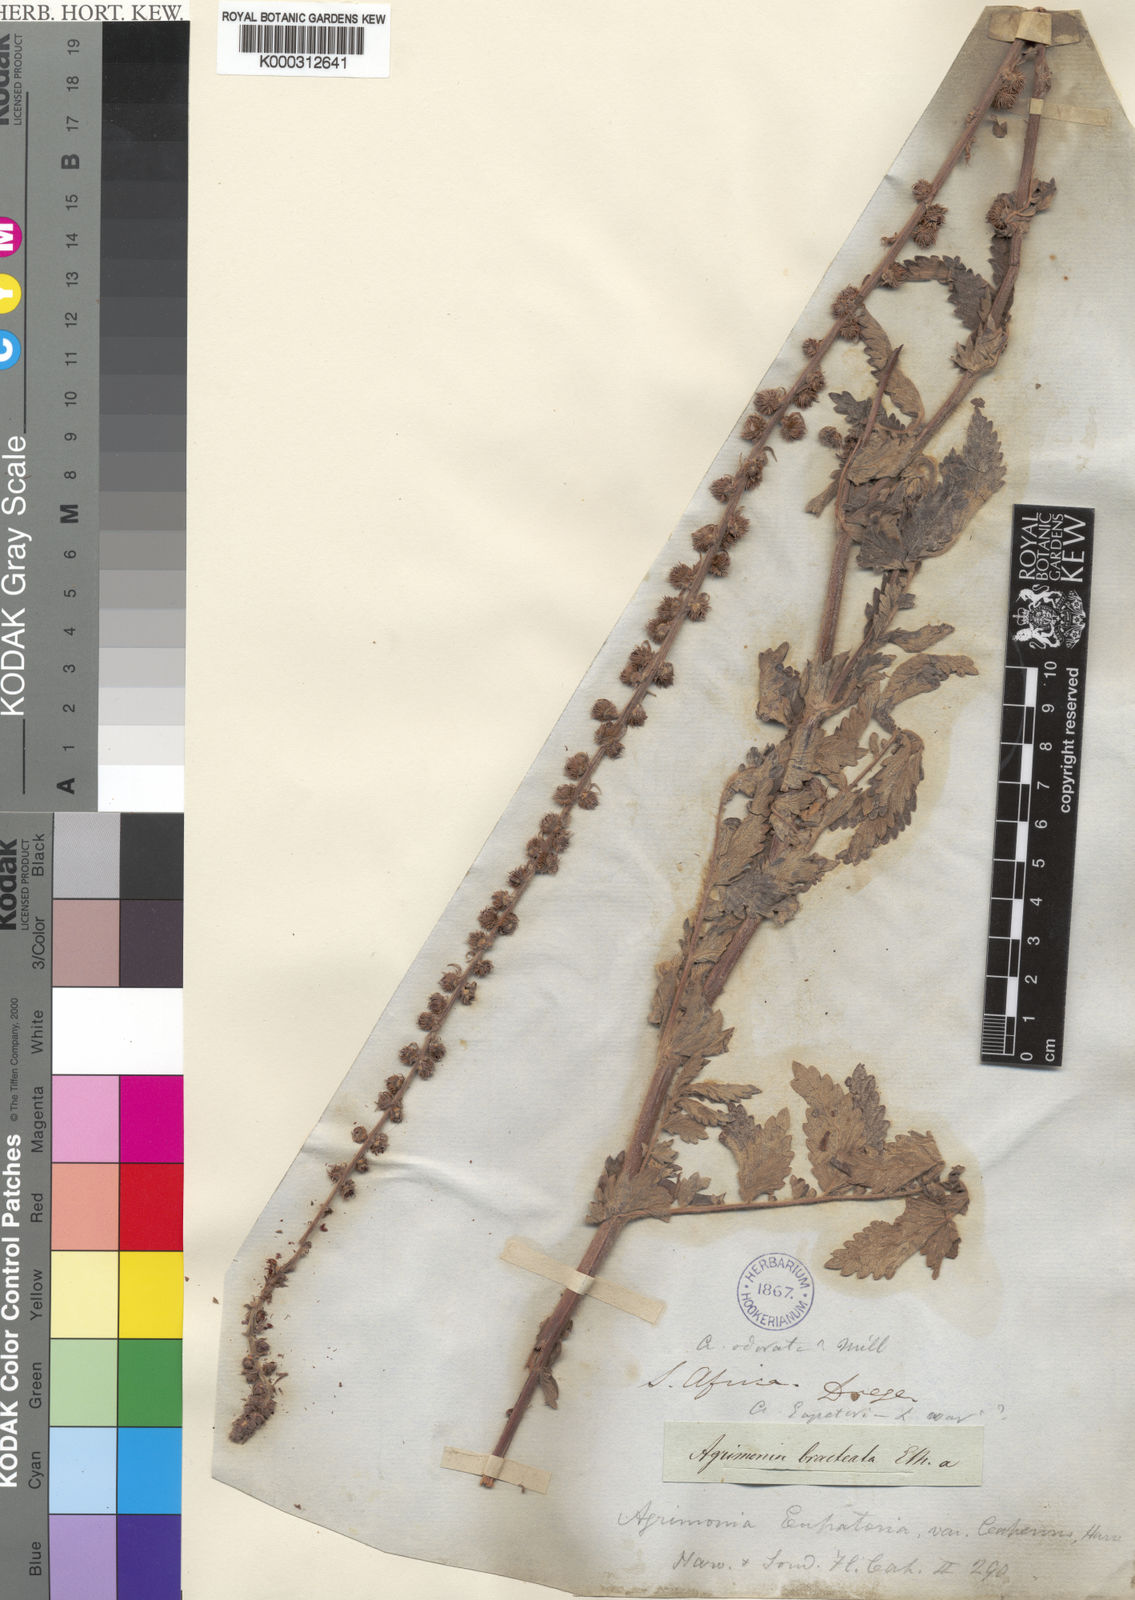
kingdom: Plantae
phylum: Tracheophyta
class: Magnoliopsida
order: Rosales
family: Rosaceae
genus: Agrimonia
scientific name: Agrimonia
